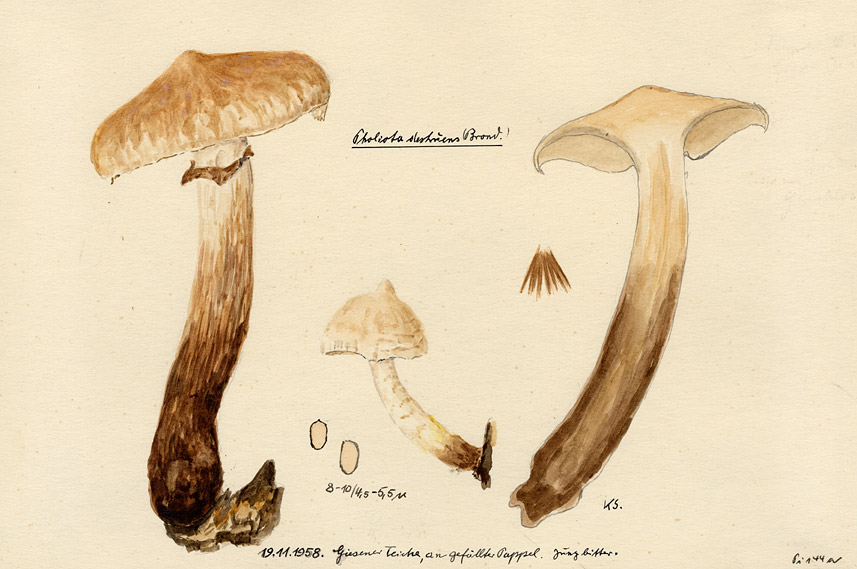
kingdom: Fungi
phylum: Basidiomycota
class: Agaricomycetes
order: Agaricales
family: Strophariaceae
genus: Pholiota
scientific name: Pholiota populnea
